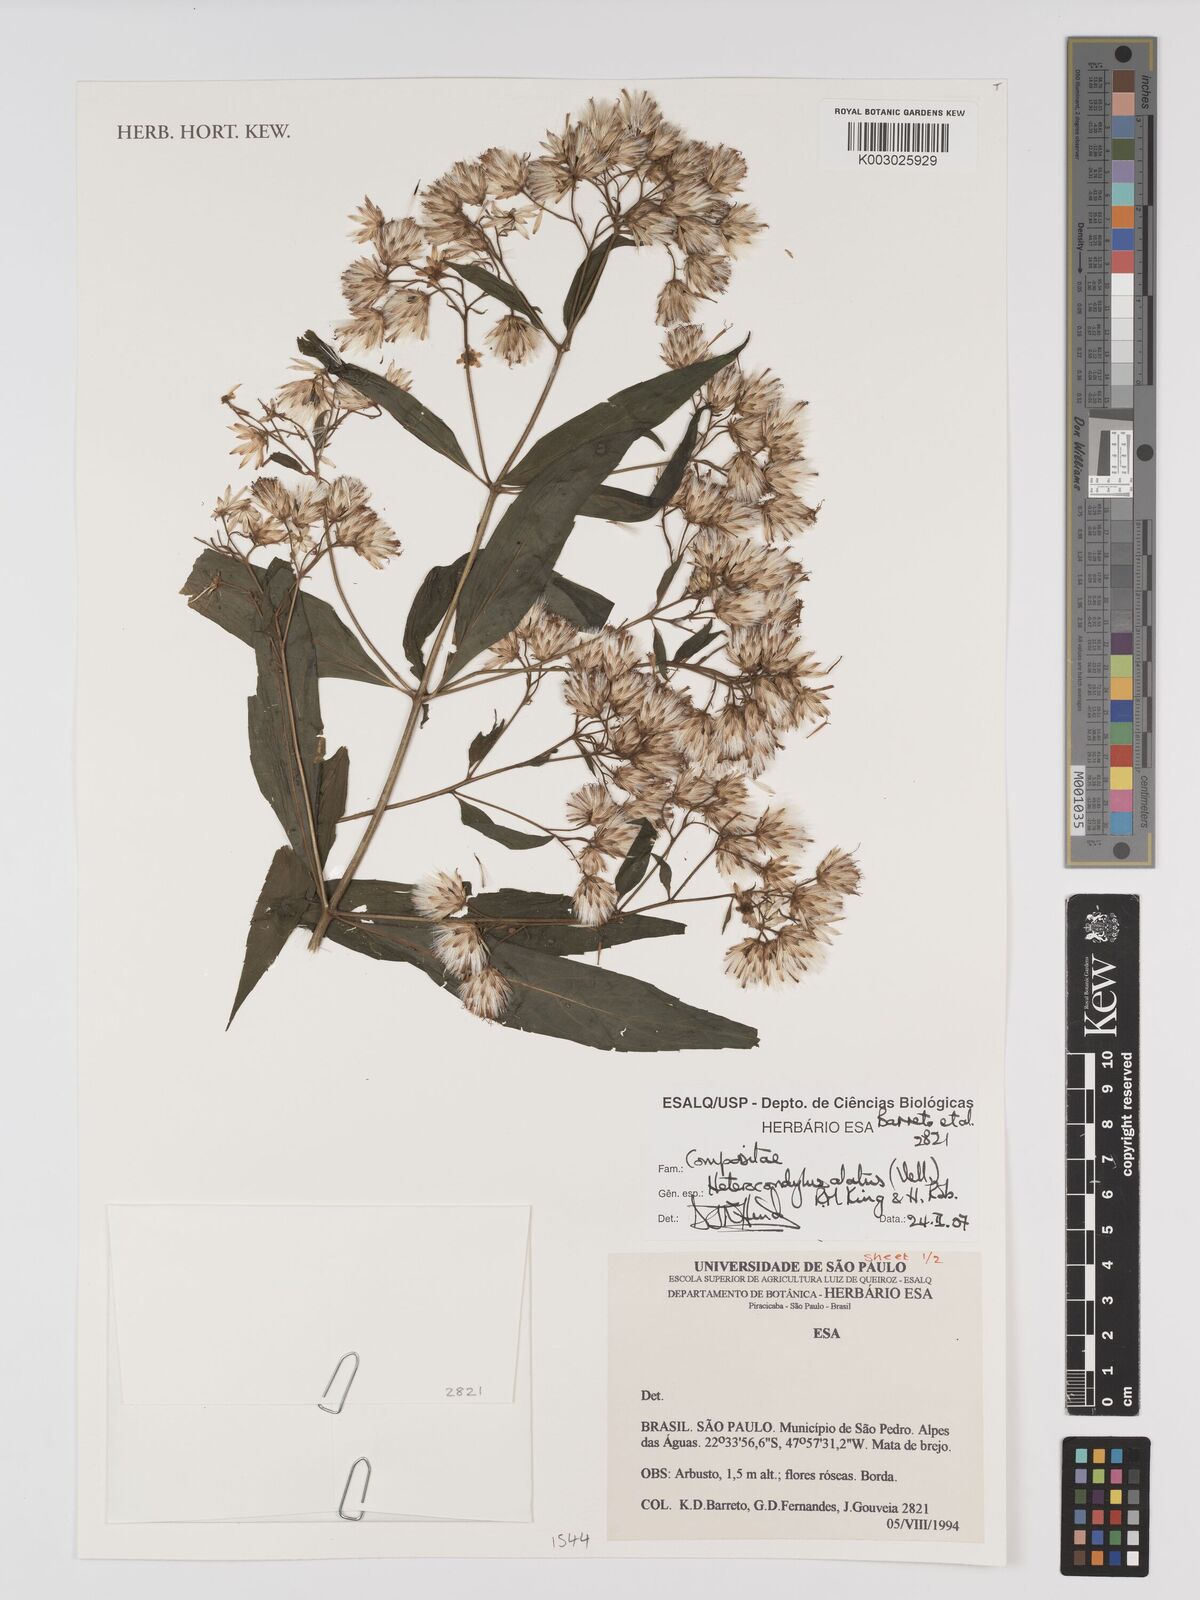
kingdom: Plantae
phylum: Tracheophyta
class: Magnoliopsida
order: Asterales
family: Asteraceae
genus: Heterocondylus
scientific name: Heterocondylus alatus
